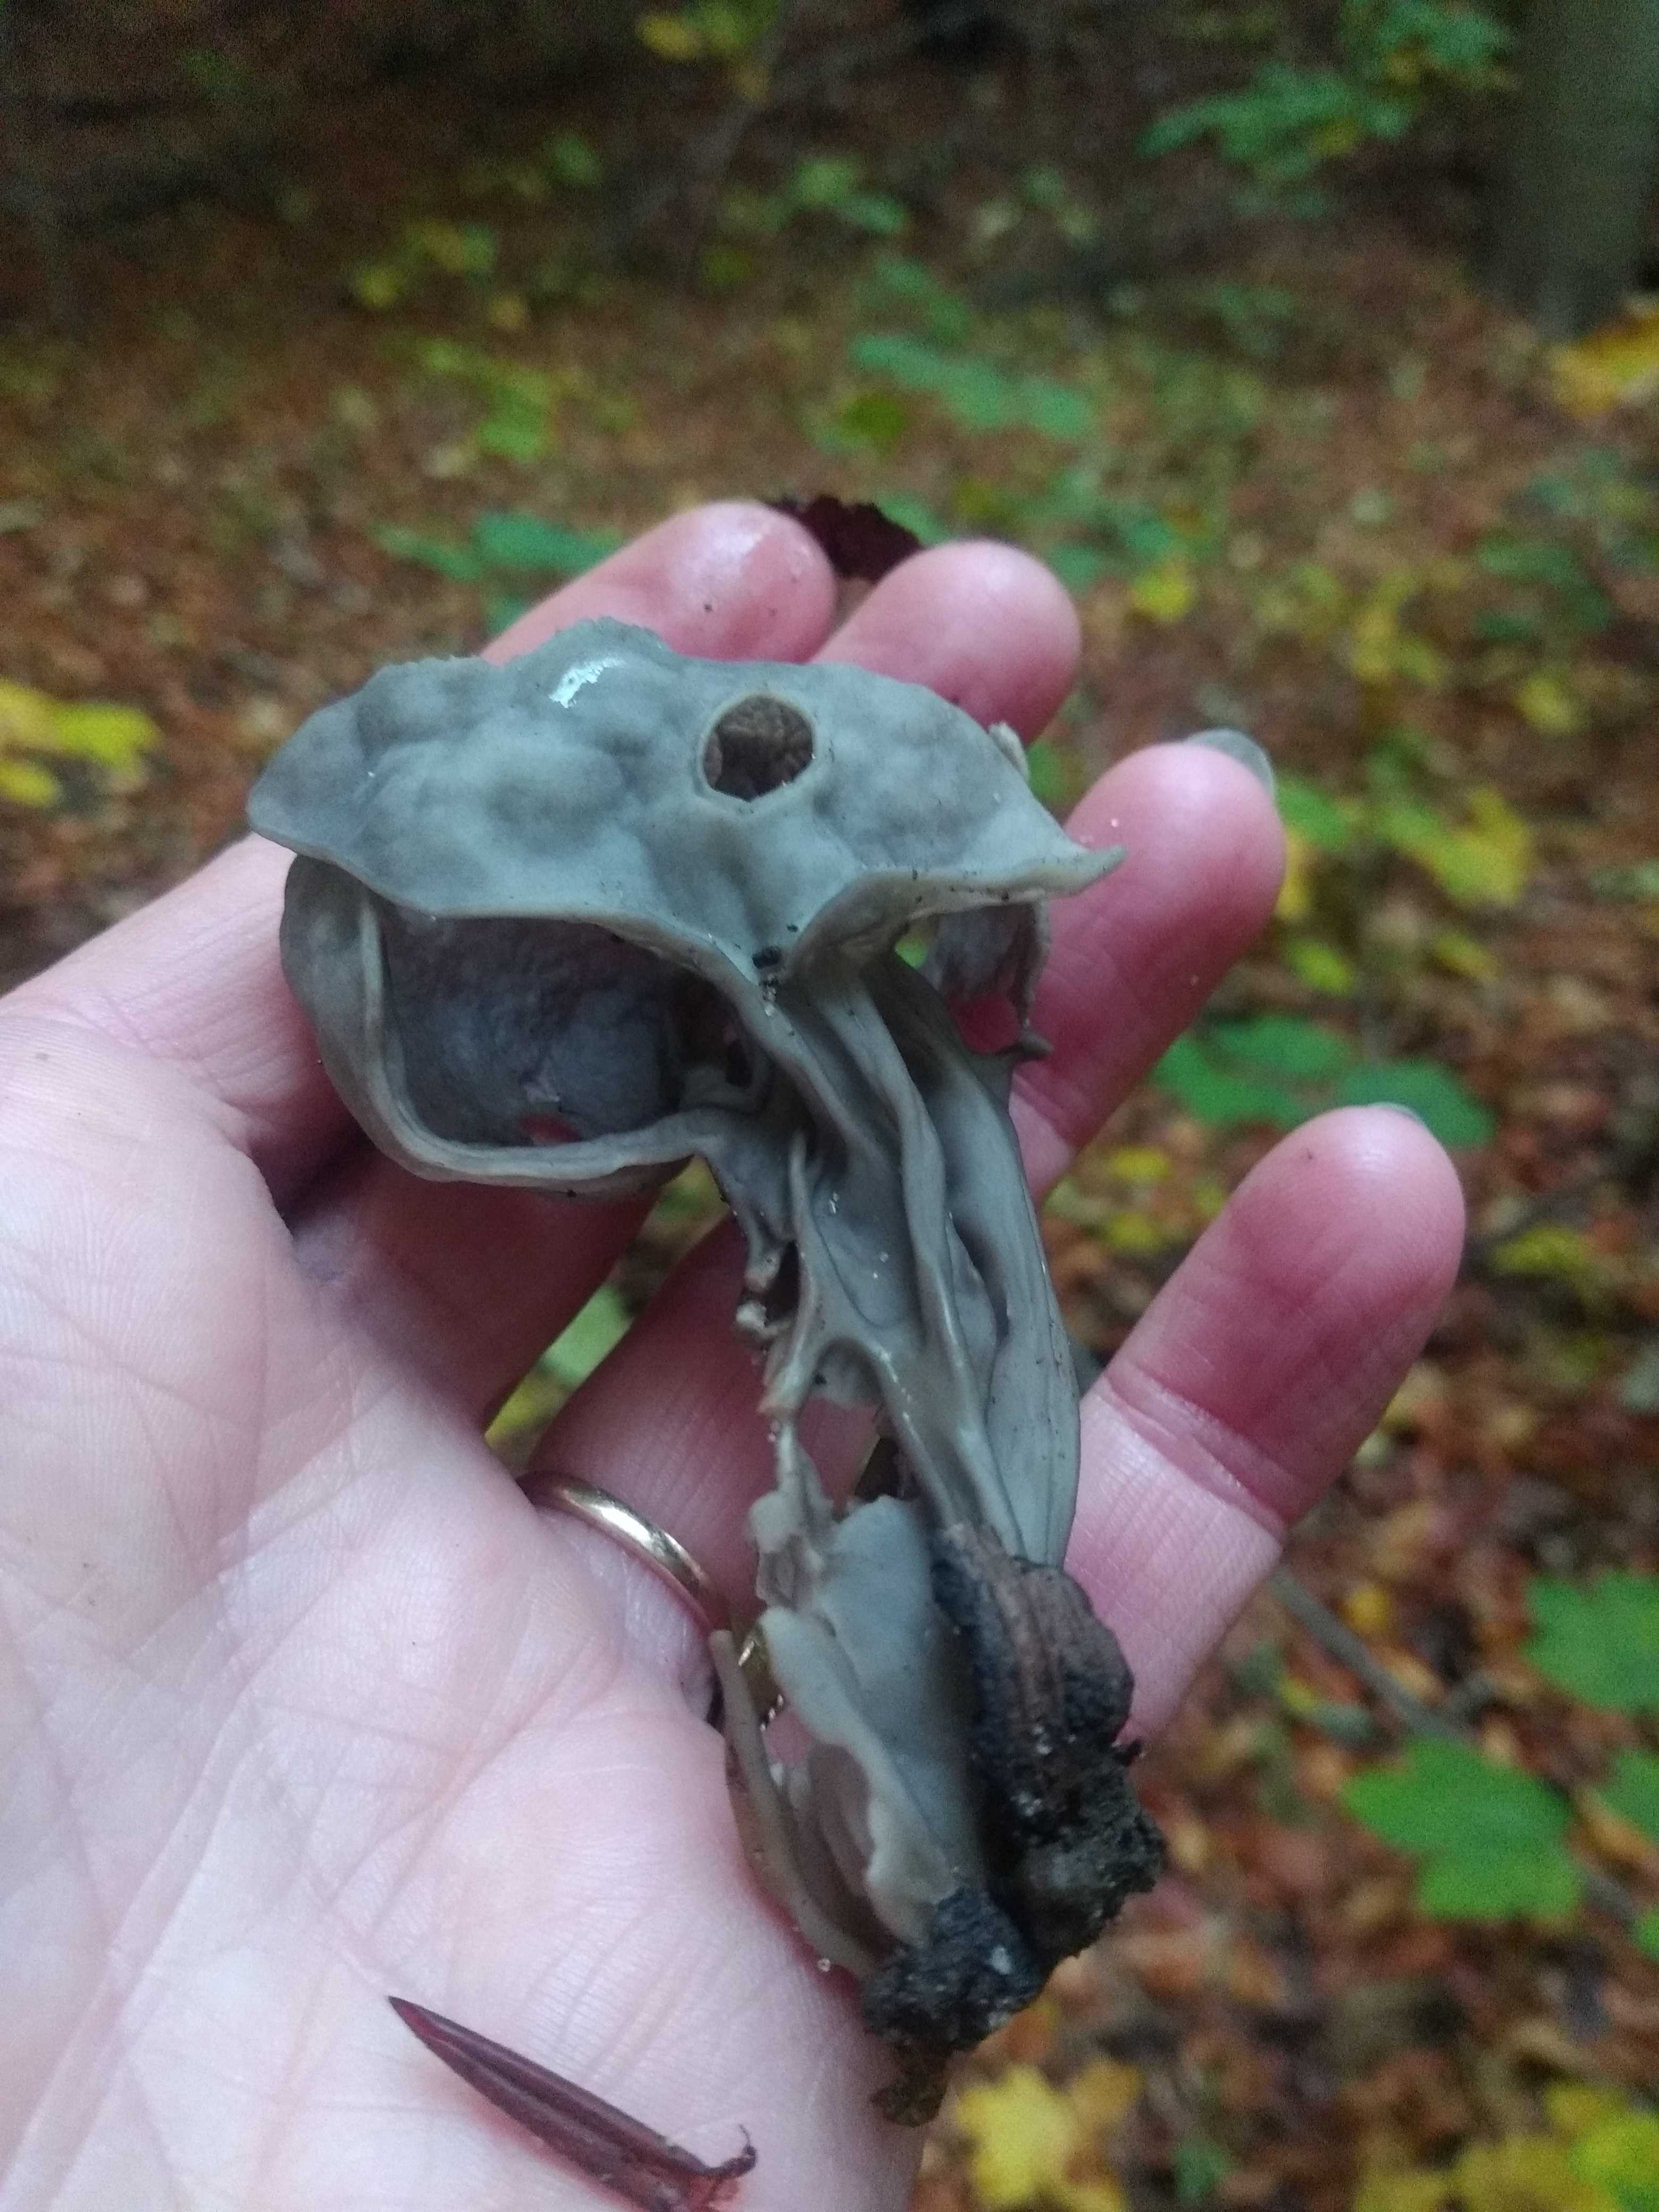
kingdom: Fungi
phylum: Ascomycota
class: Pezizomycetes
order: Pezizales
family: Helvellaceae
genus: Helvella
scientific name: Helvella lacunosa
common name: grubet foldhat
